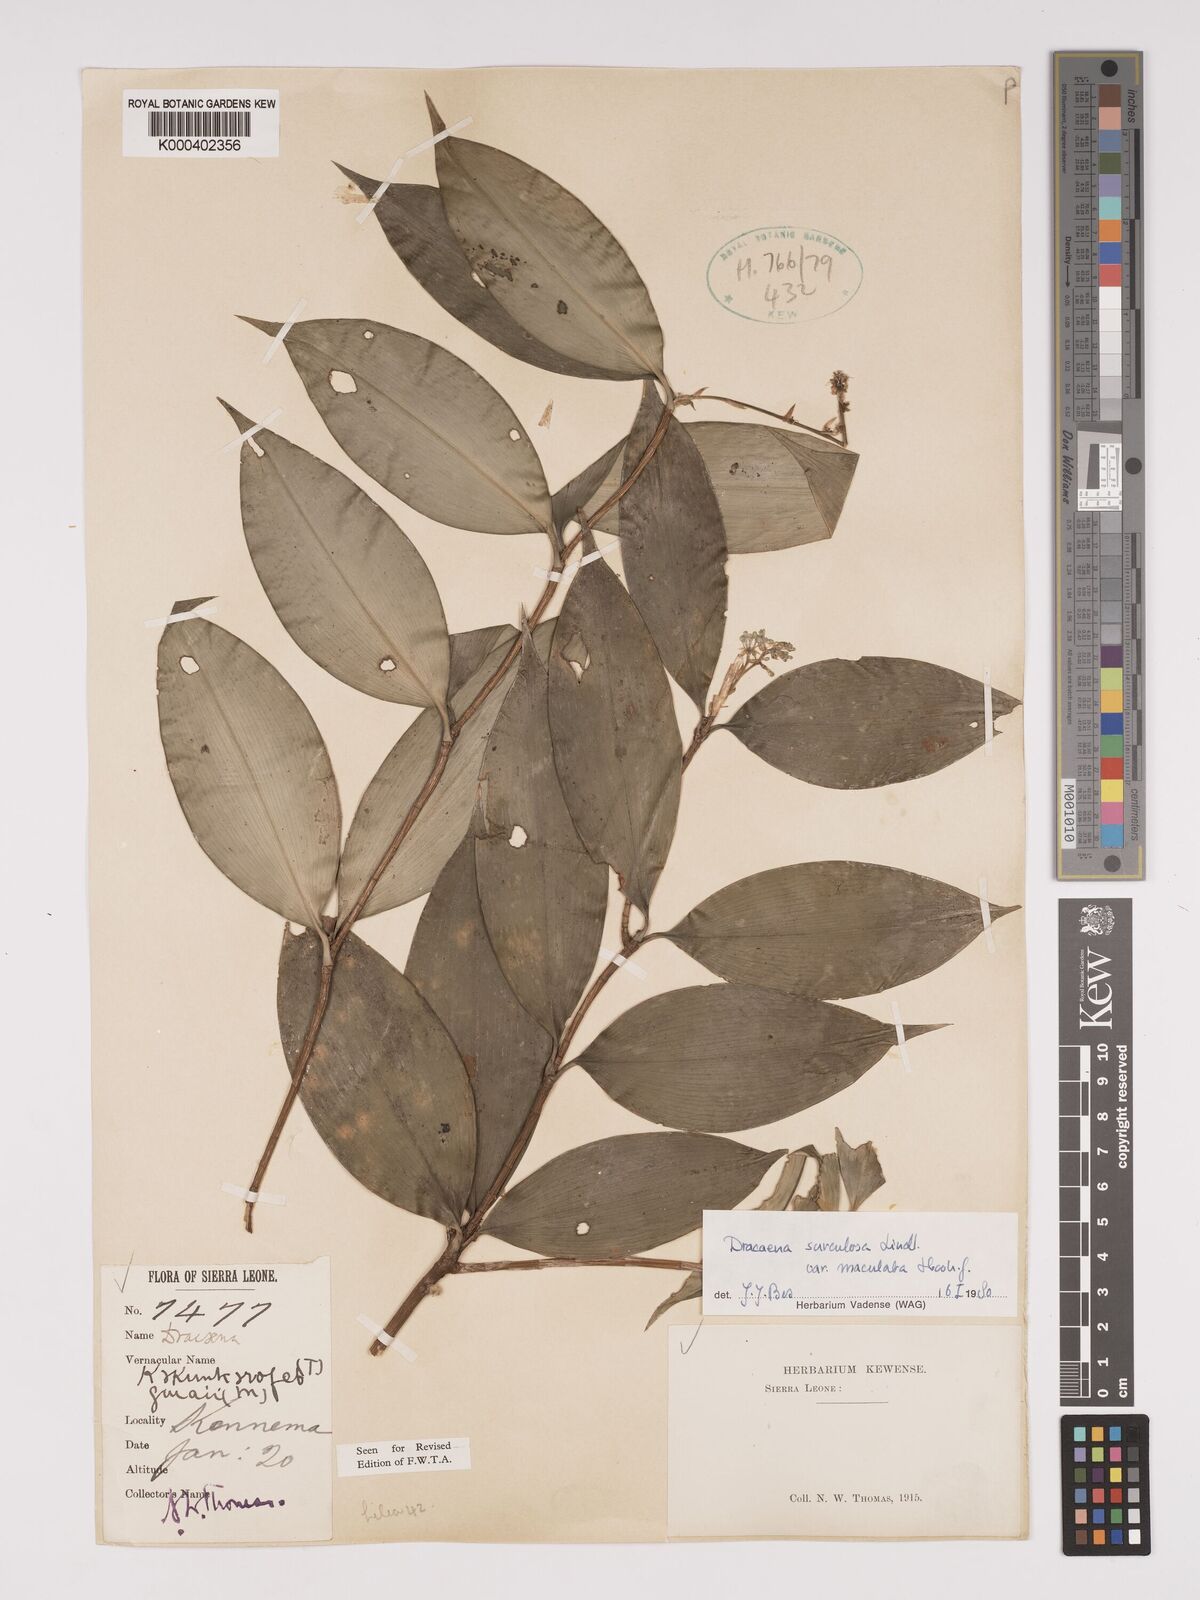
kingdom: Plantae
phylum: Tracheophyta
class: Liliopsida
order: Asparagales
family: Asparagaceae
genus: Dracaena
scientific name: Dracaena surculosa
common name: Spotted dracaena
